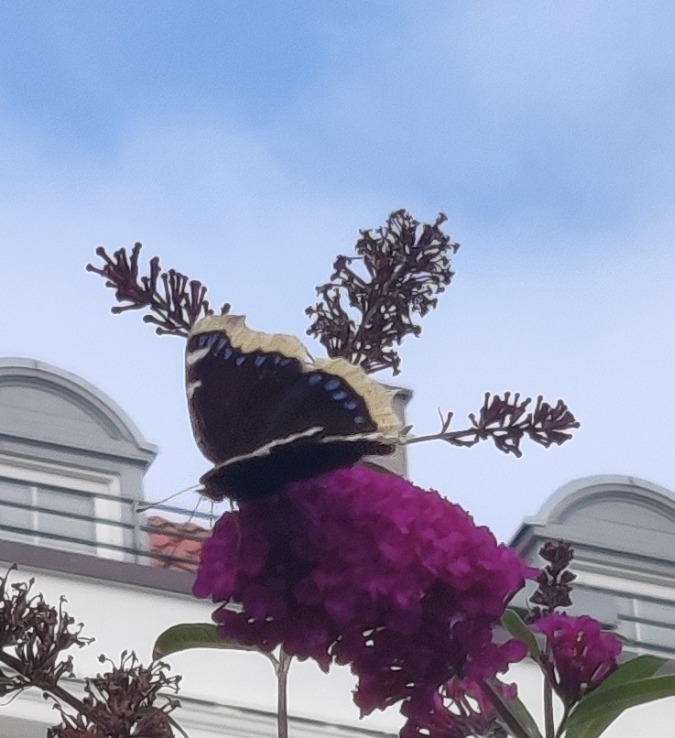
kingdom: Animalia
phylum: Arthropoda
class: Insecta
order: Lepidoptera
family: Nymphalidae
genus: Nymphalis
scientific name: Nymphalis antiopa
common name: Sørgekåbe
